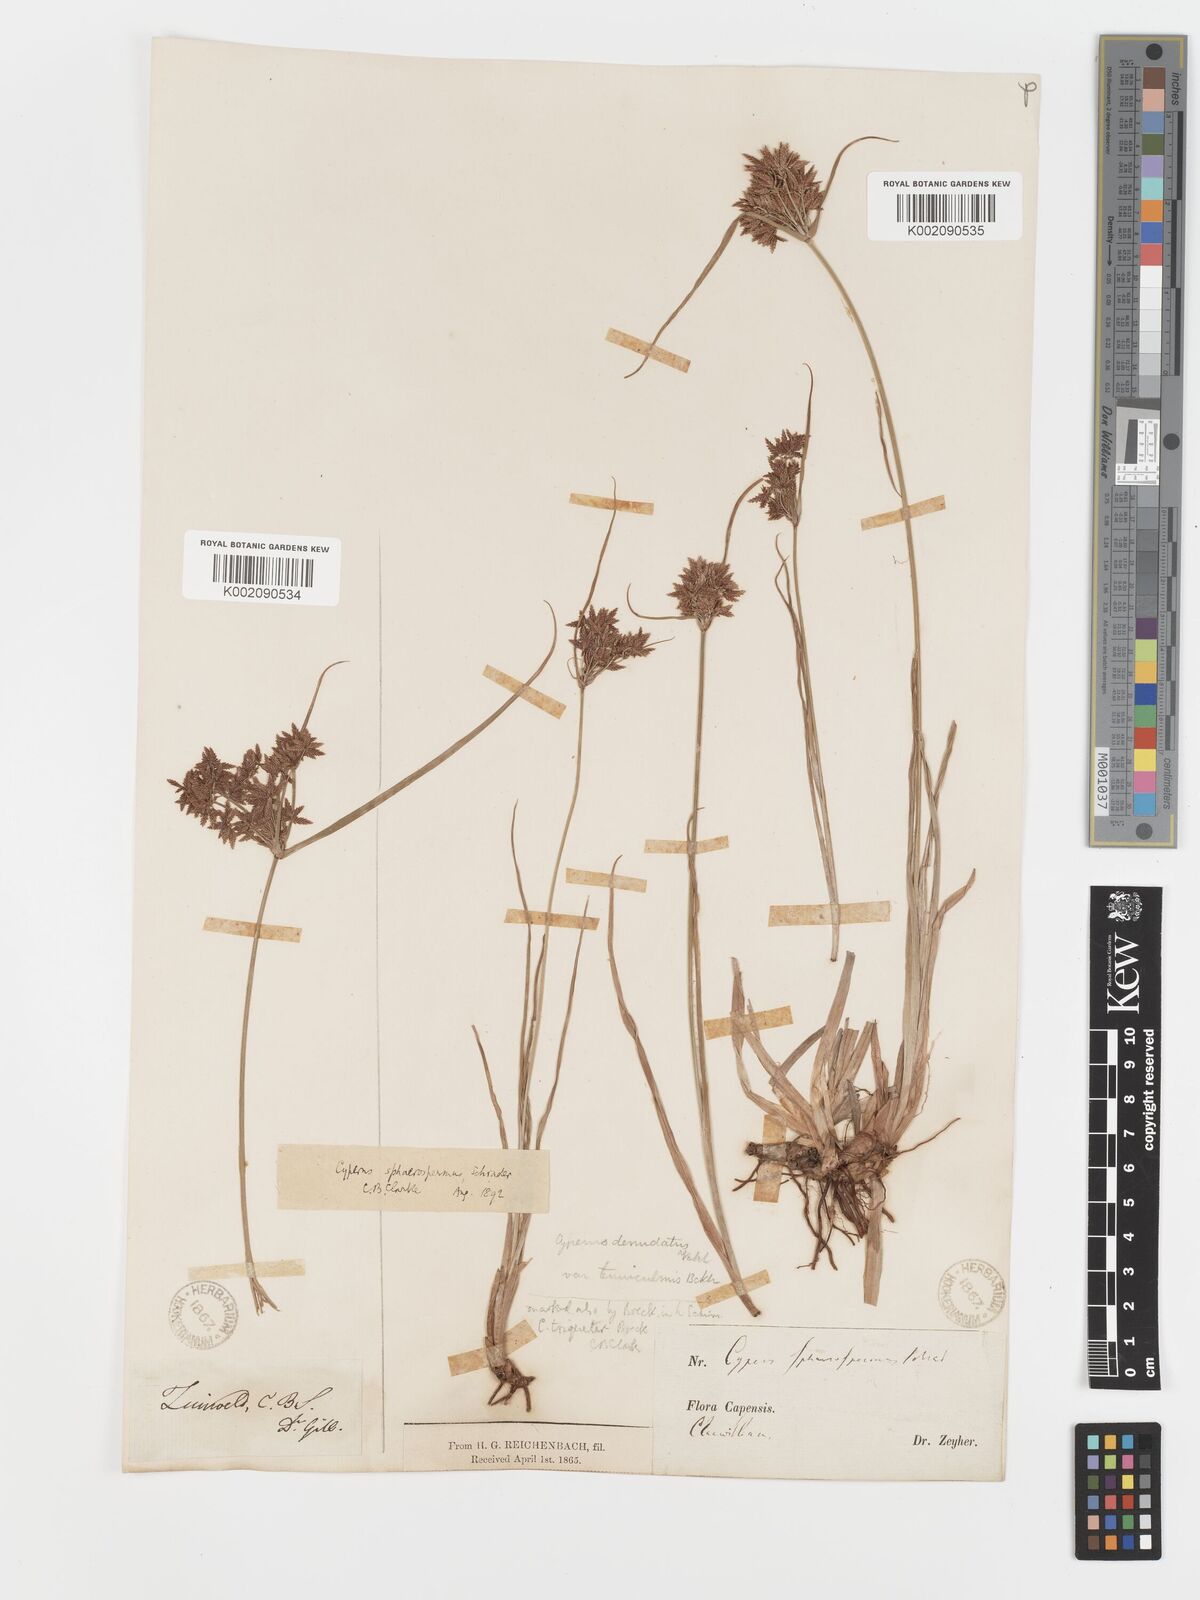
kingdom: Plantae
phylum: Tracheophyta
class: Liliopsida
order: Poales
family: Cyperaceae
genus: Cyperus
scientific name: Cyperus sphaerospermus
